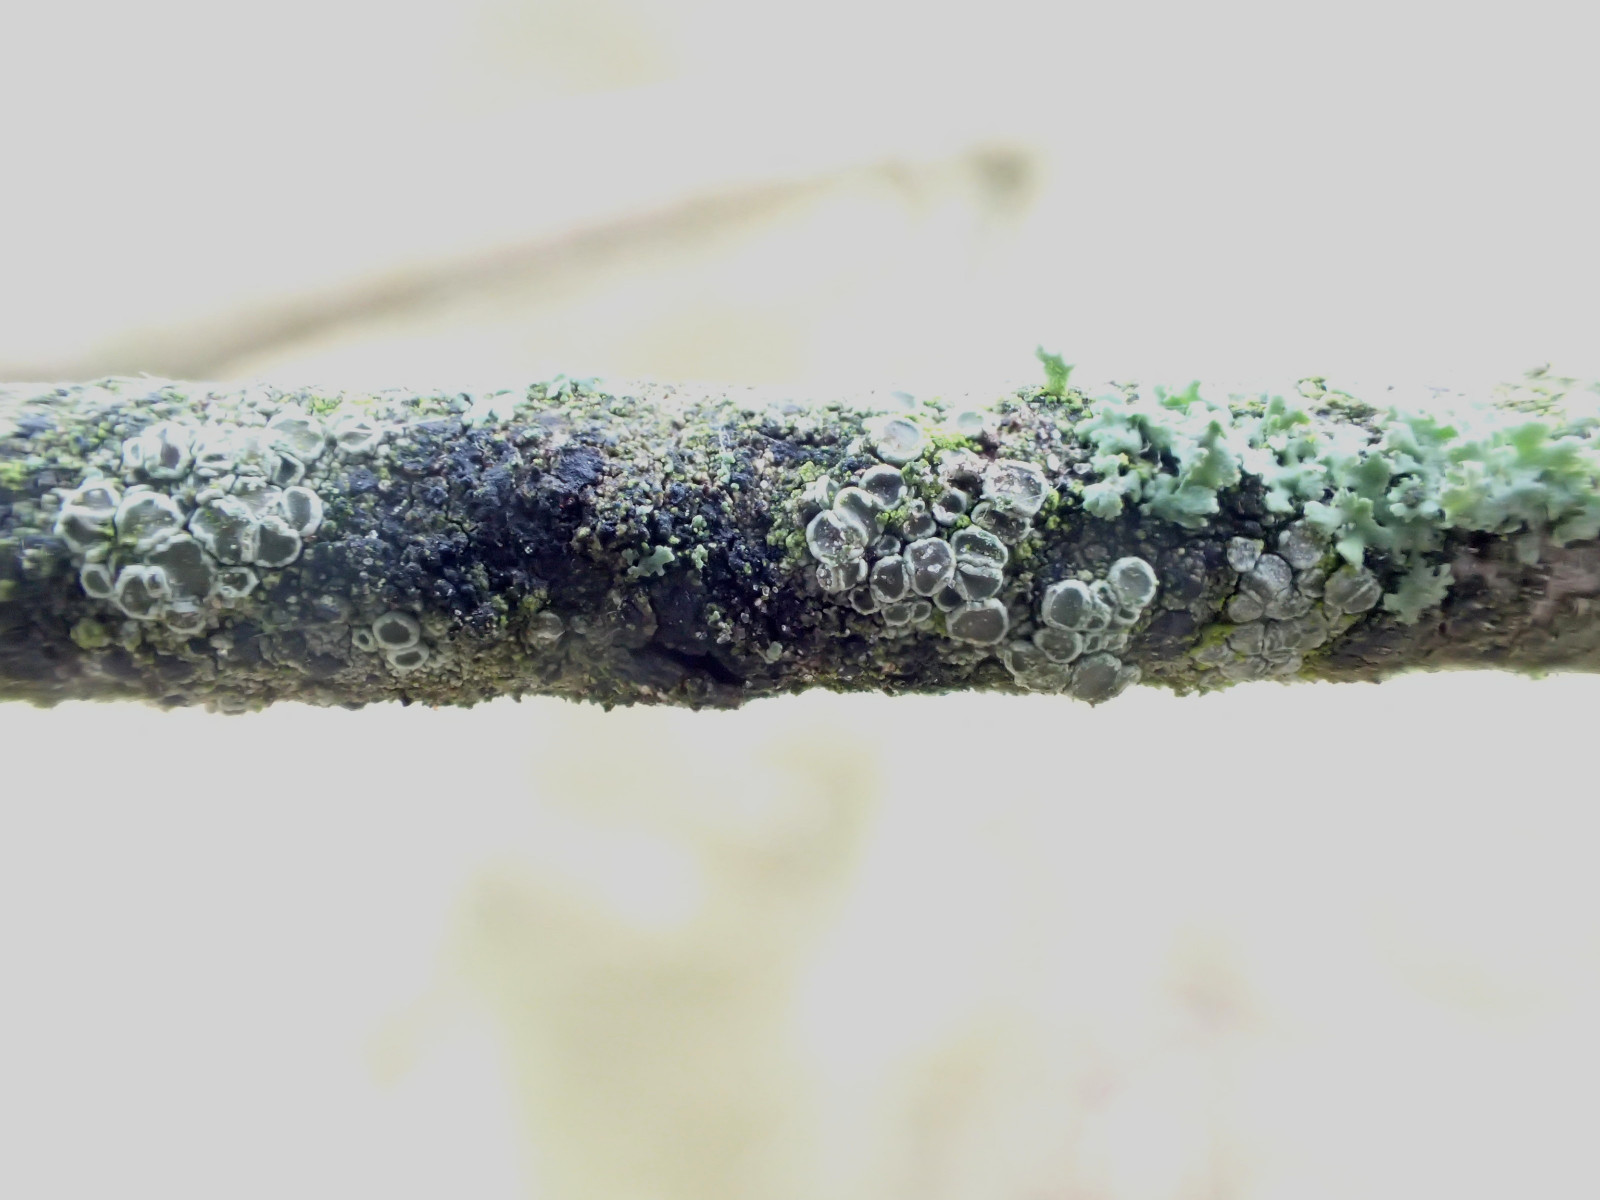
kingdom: Fungi
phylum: Ascomycota
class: Lecanoromycetes
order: Lecanorales
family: Lecanoraceae
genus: Lecanora
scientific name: Lecanora chlarotera
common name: brun kantskivelav
